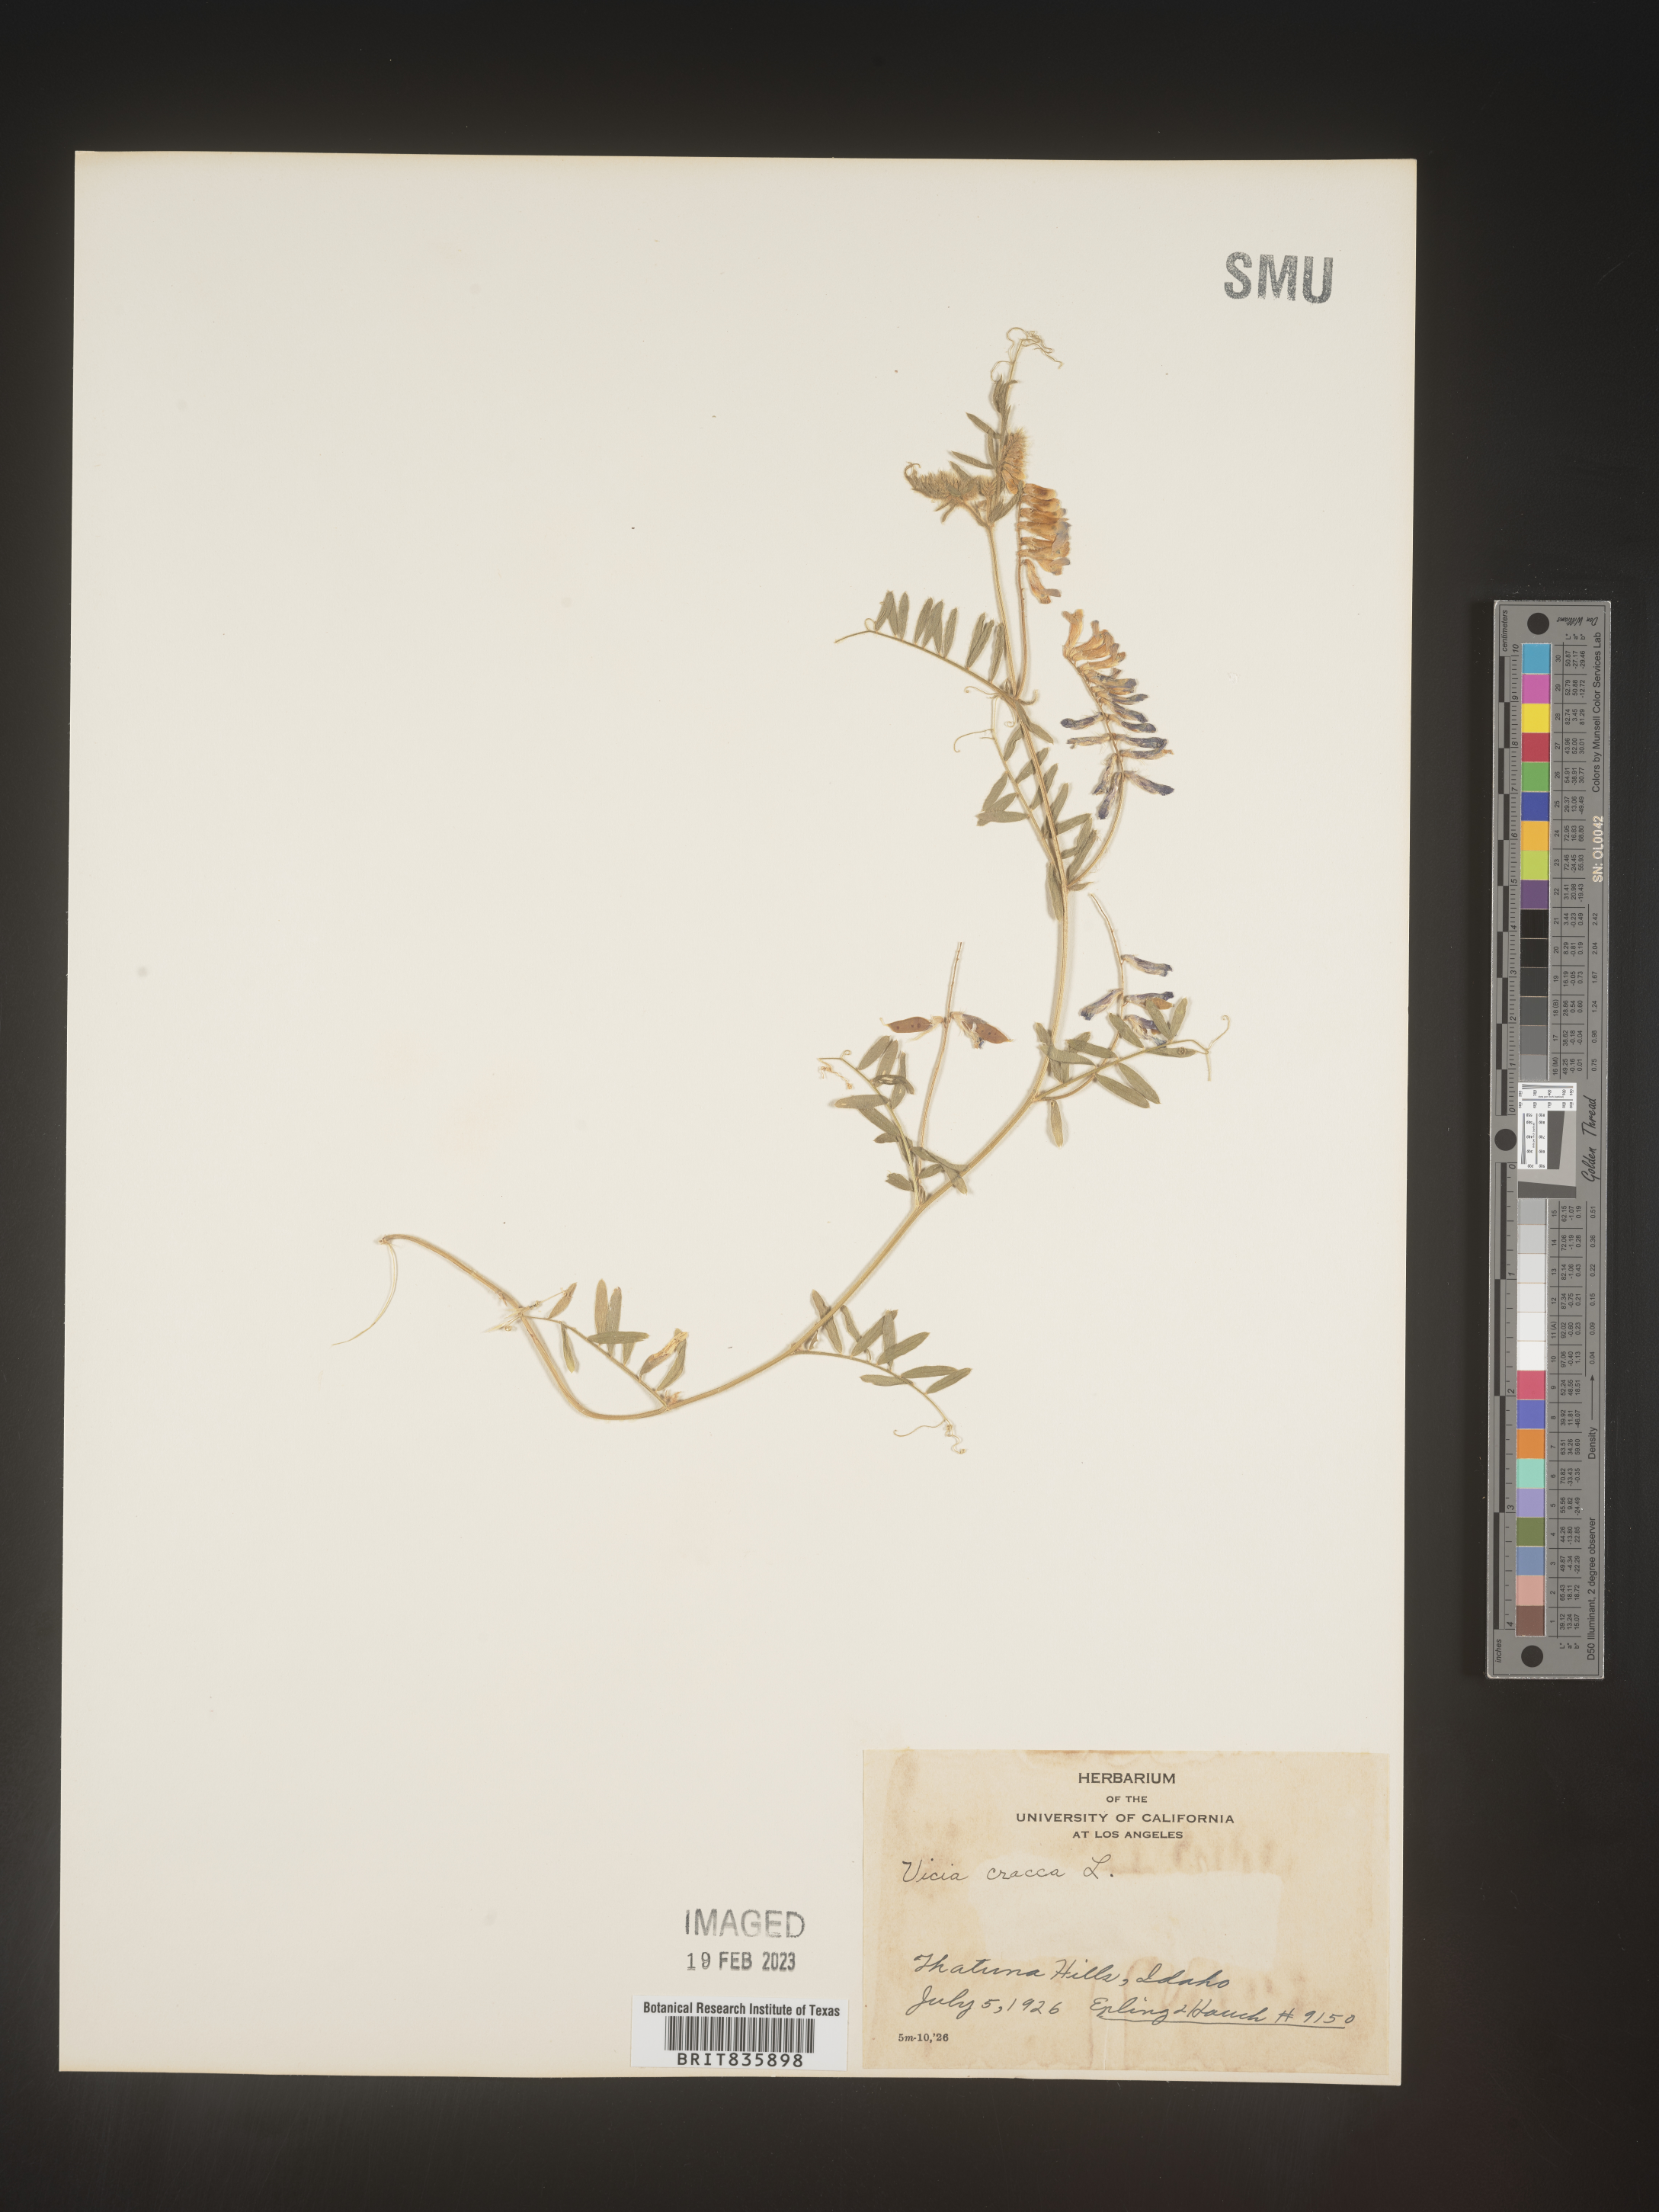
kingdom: Plantae
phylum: Tracheophyta
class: Magnoliopsida
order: Fabales
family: Fabaceae
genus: Vicia
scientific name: Vicia cracca
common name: Bird vetch
